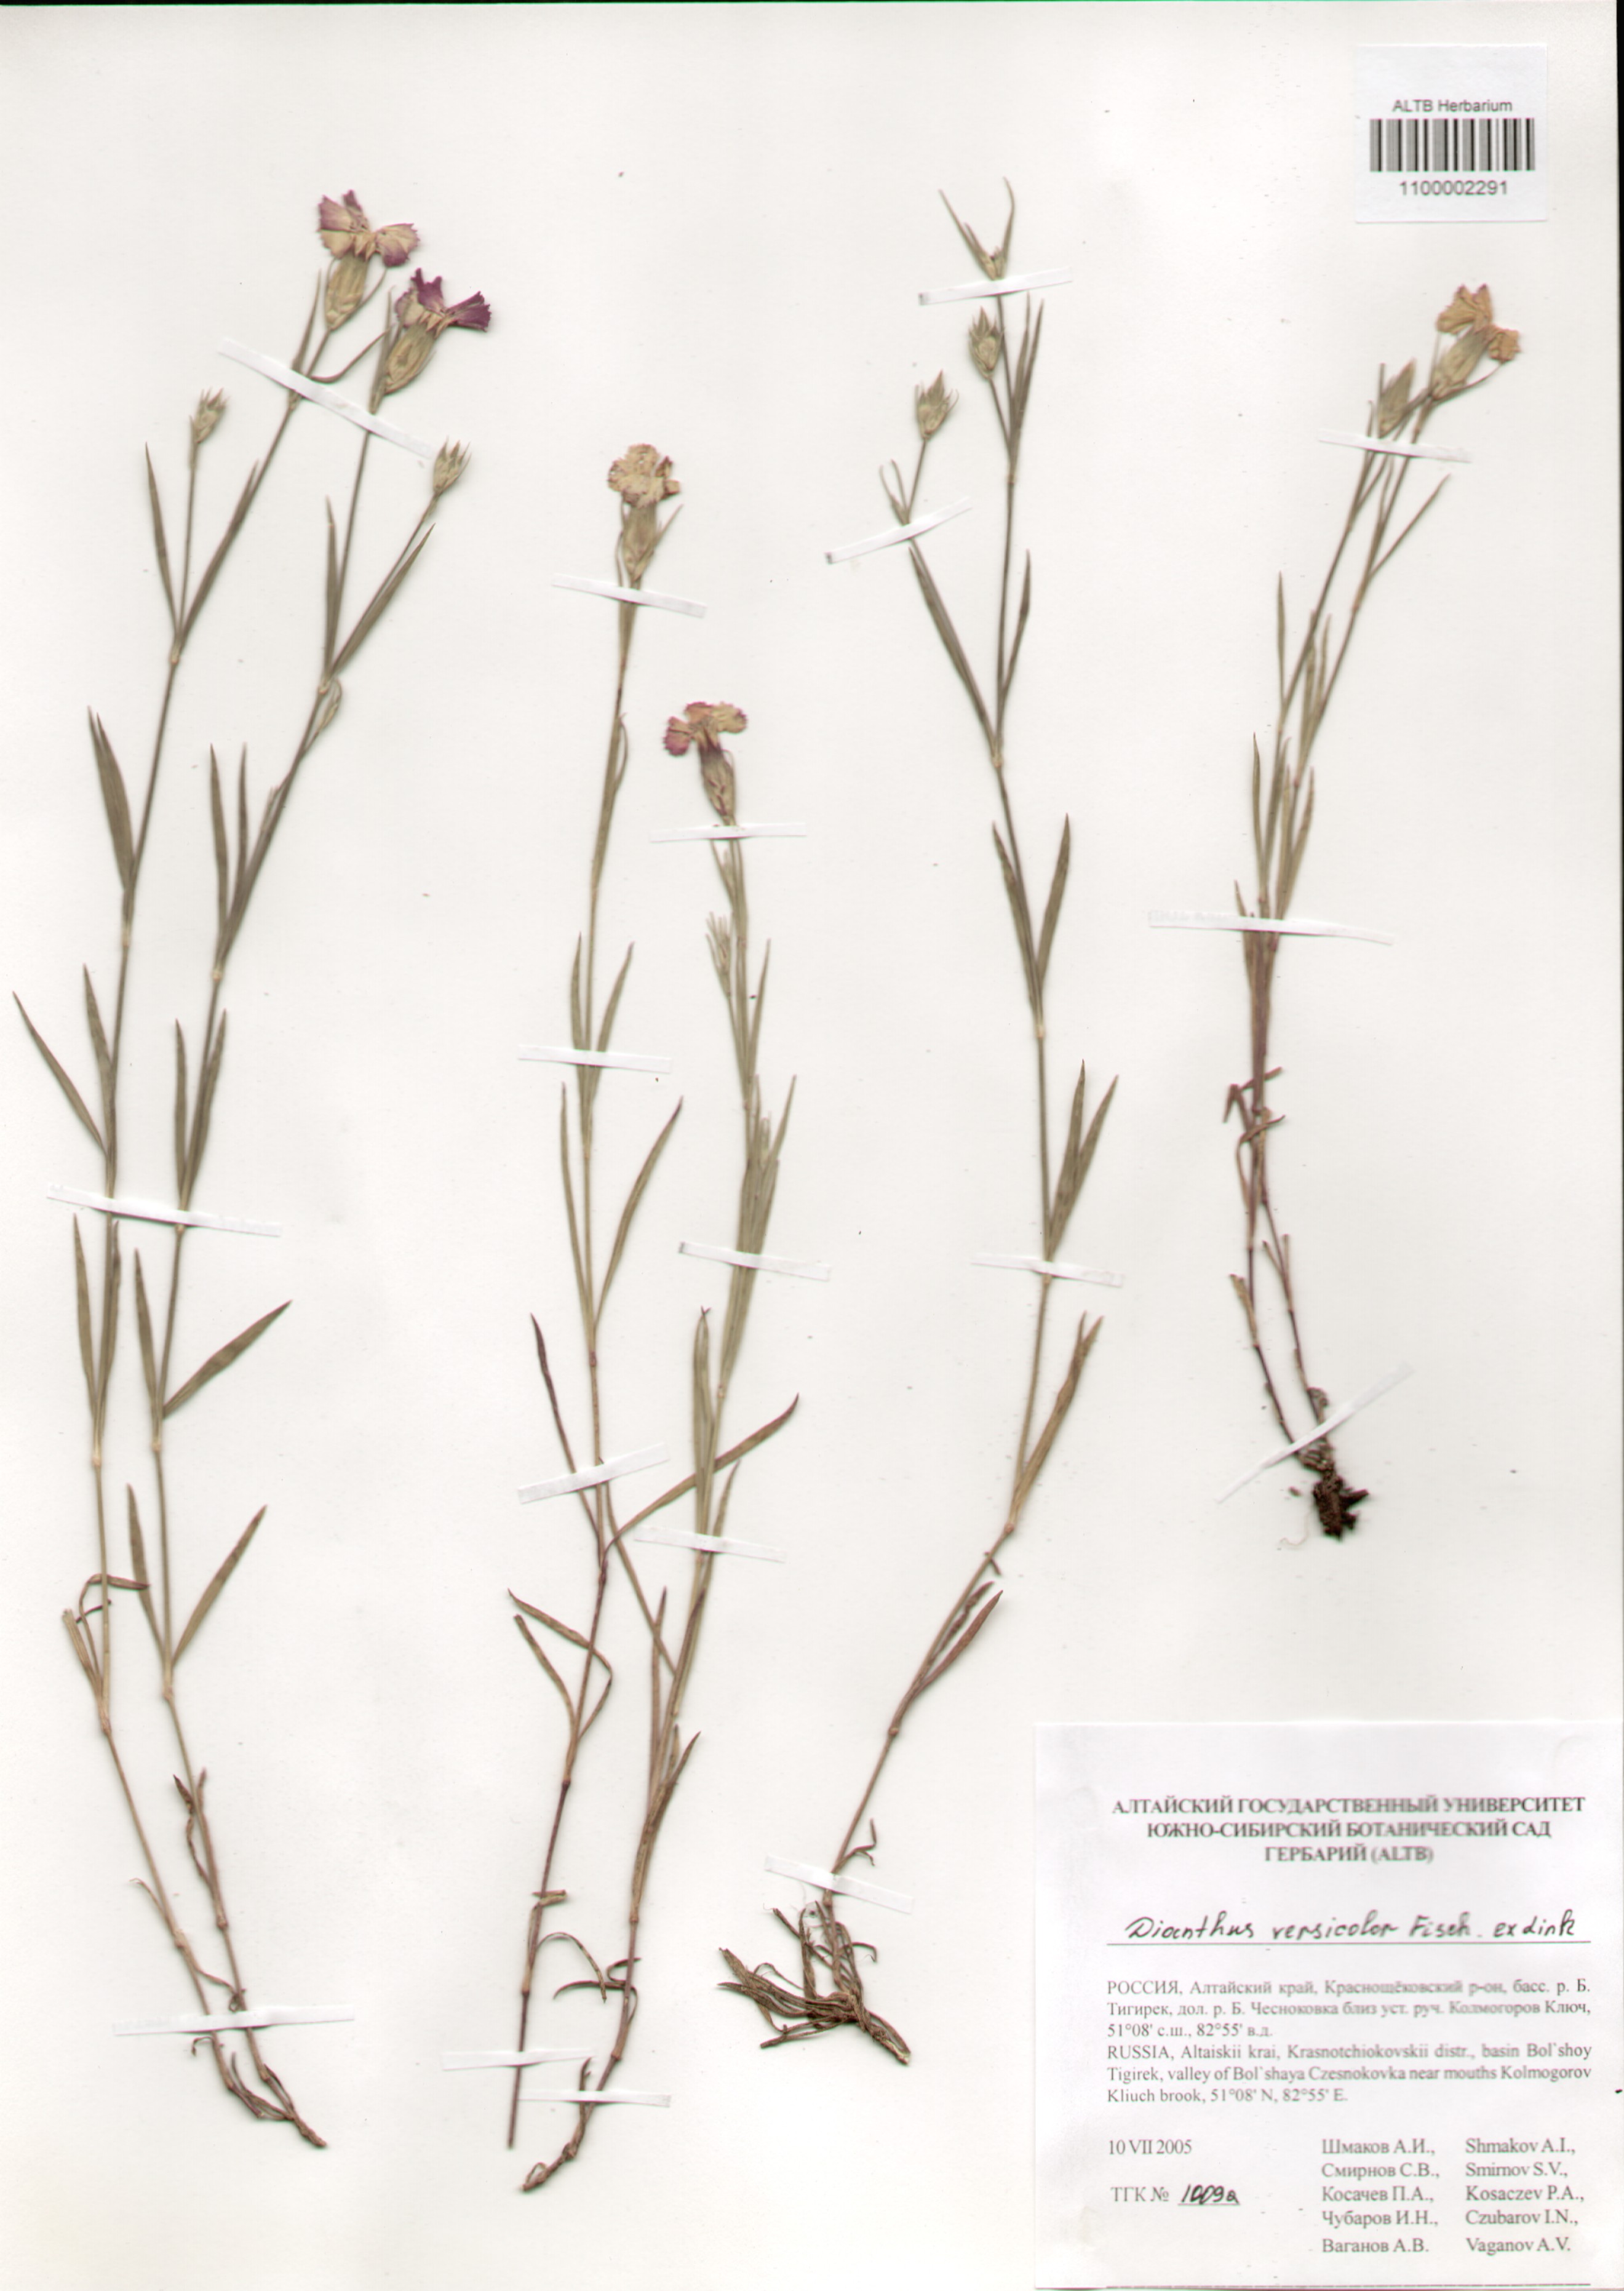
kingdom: Plantae
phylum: Tracheophyta
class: Magnoliopsida
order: Caryophyllales
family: Caryophyllaceae
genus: Dianthus
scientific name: Dianthus chinensis
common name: Rainbow pink
